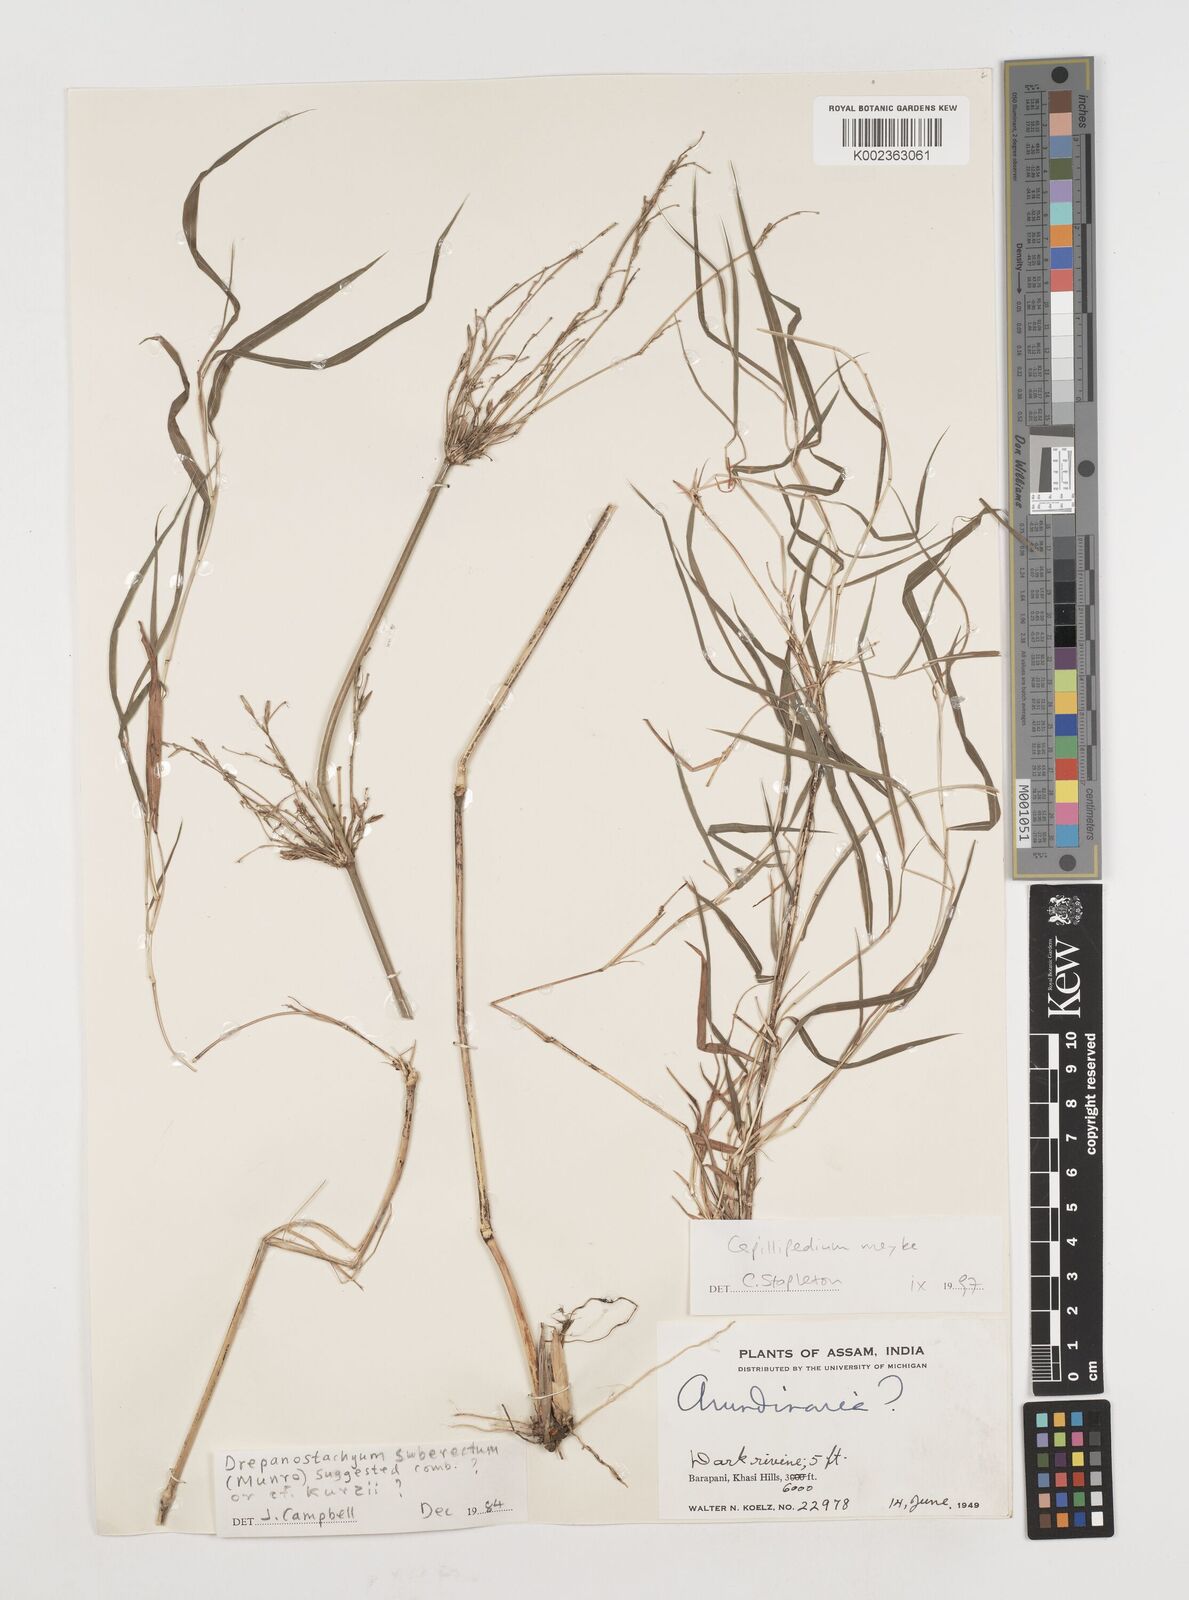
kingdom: Plantae
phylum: Tracheophyta
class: Liliopsida
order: Poales
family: Poaceae
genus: Drepanostachyum
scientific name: Drepanostachyum khasianum
